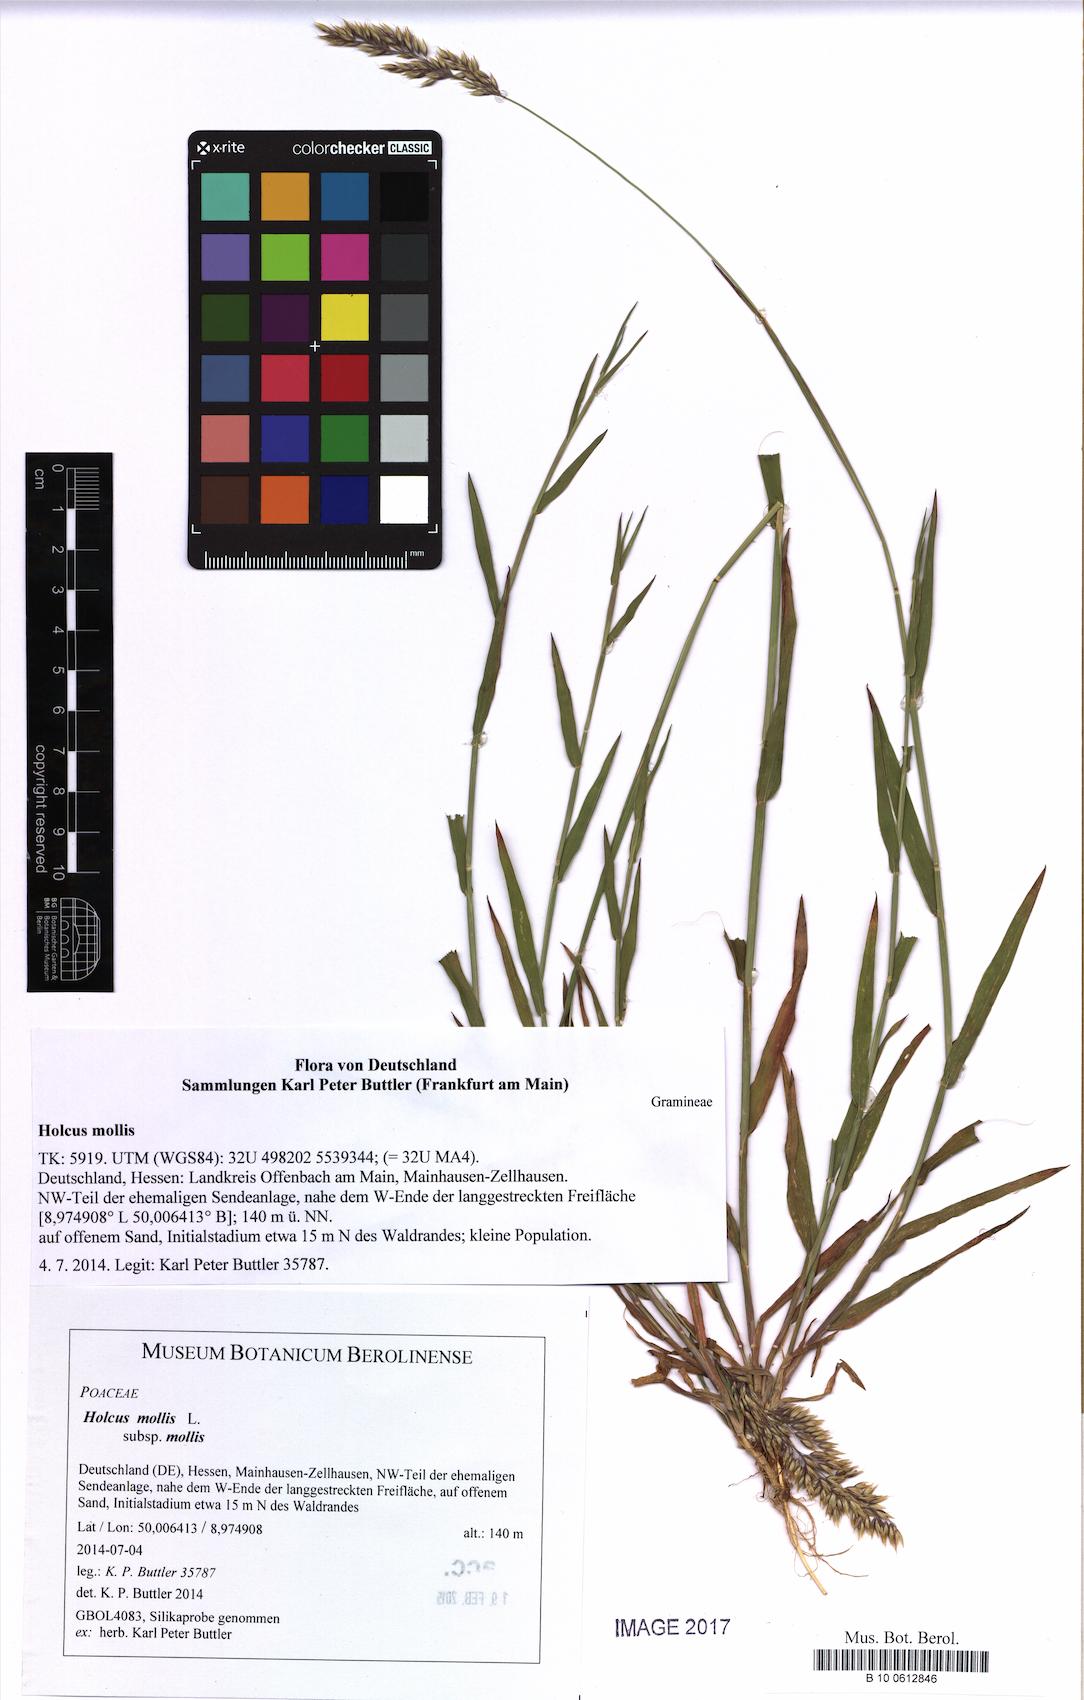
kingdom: Plantae
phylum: Tracheophyta
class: Liliopsida
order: Poales
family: Poaceae
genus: Holcus
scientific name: Holcus mollis
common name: Creeping velvetgrass
